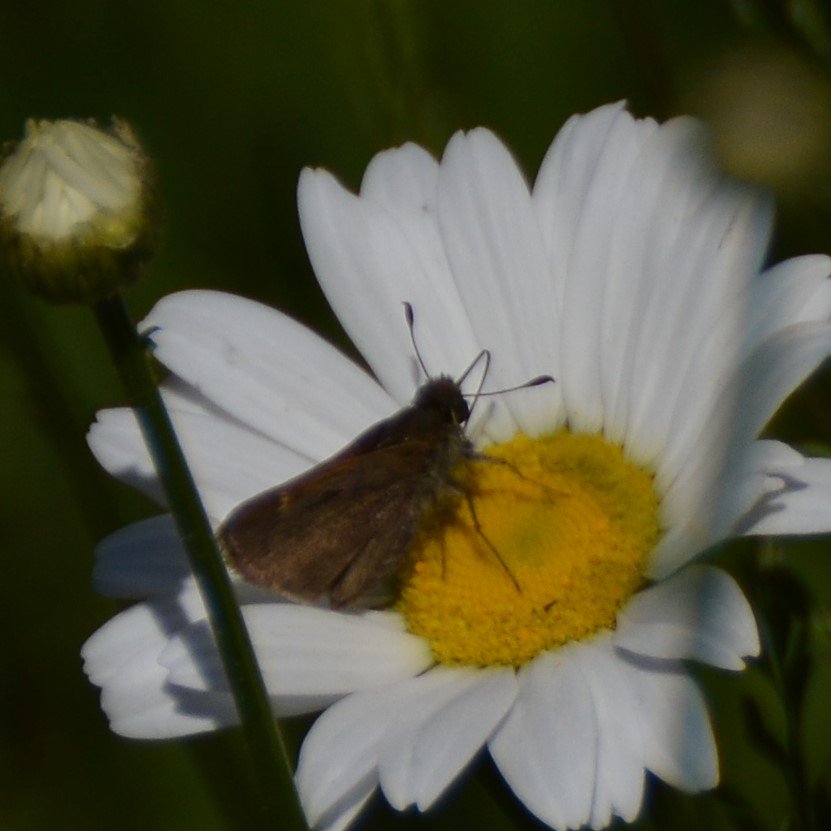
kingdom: Animalia
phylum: Arthropoda
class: Insecta
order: Lepidoptera
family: Hesperiidae
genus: Polites
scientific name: Polites themistocles
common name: Tawny-edged Skipper
